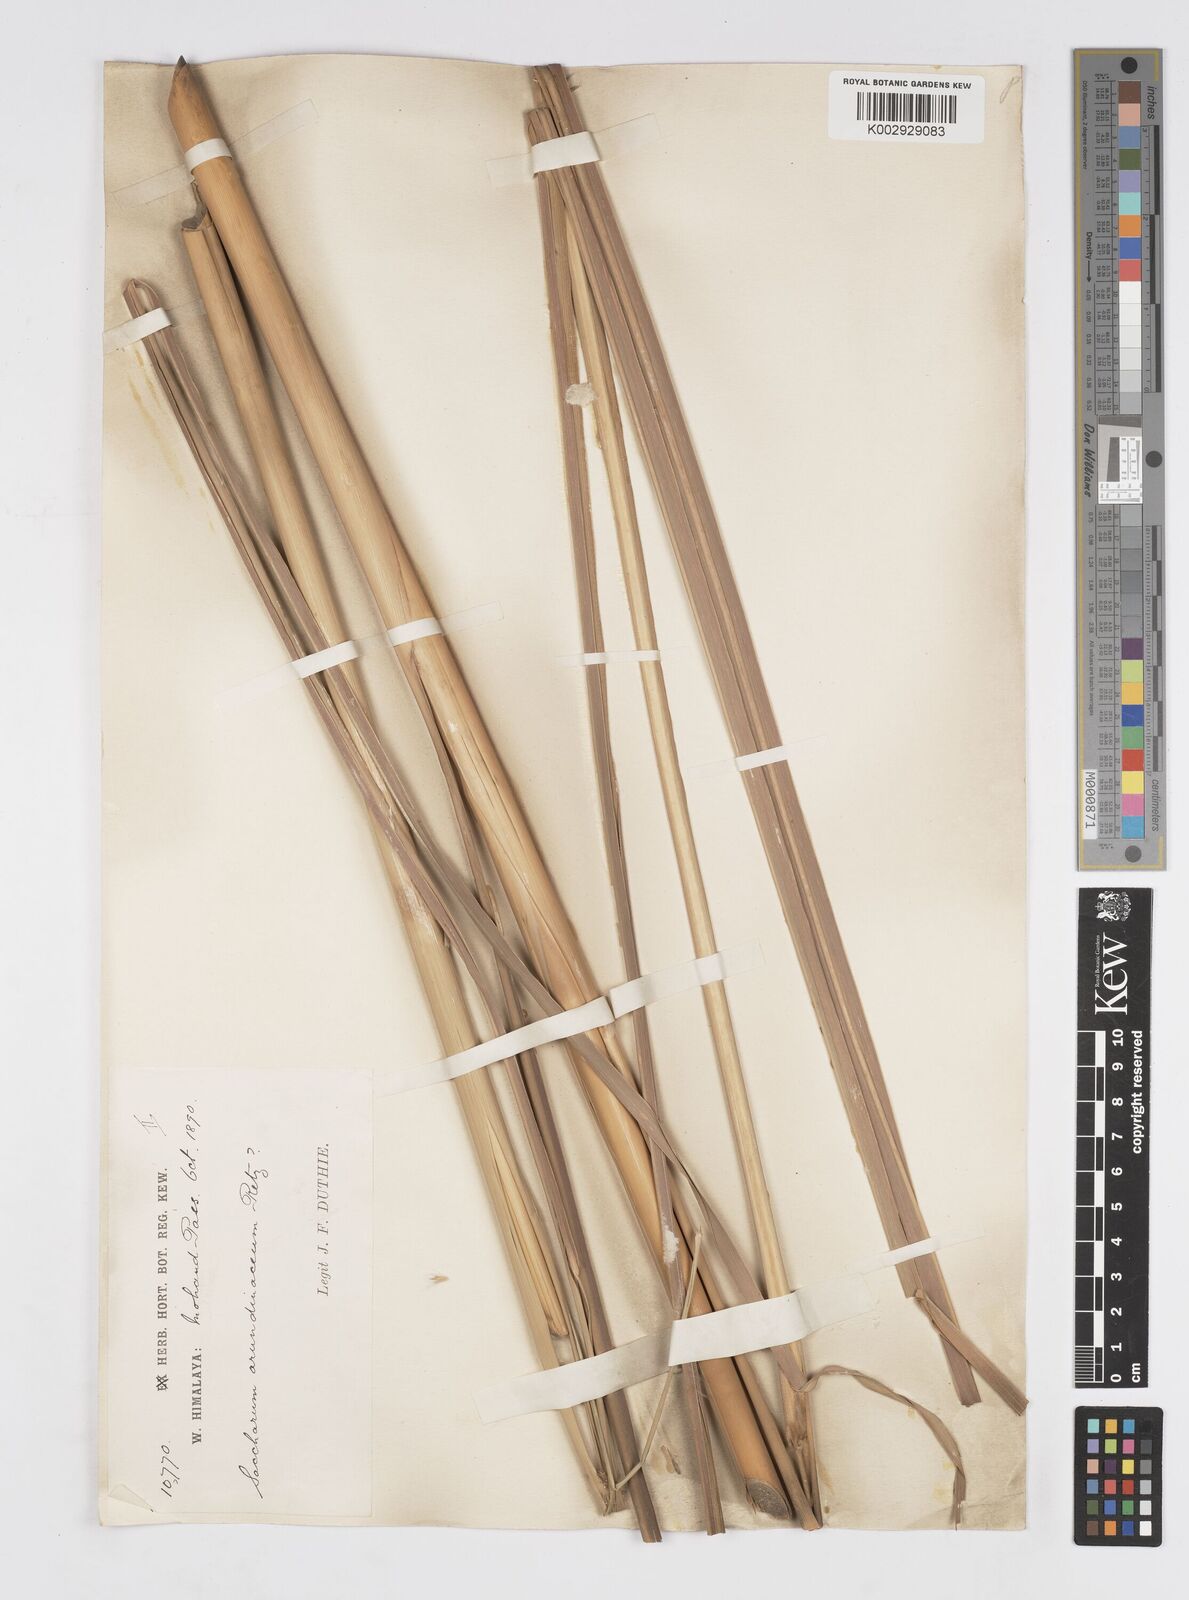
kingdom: Plantae
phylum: Tracheophyta
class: Liliopsida
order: Poales
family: Poaceae
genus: Tripidium
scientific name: Tripidium bengalense
